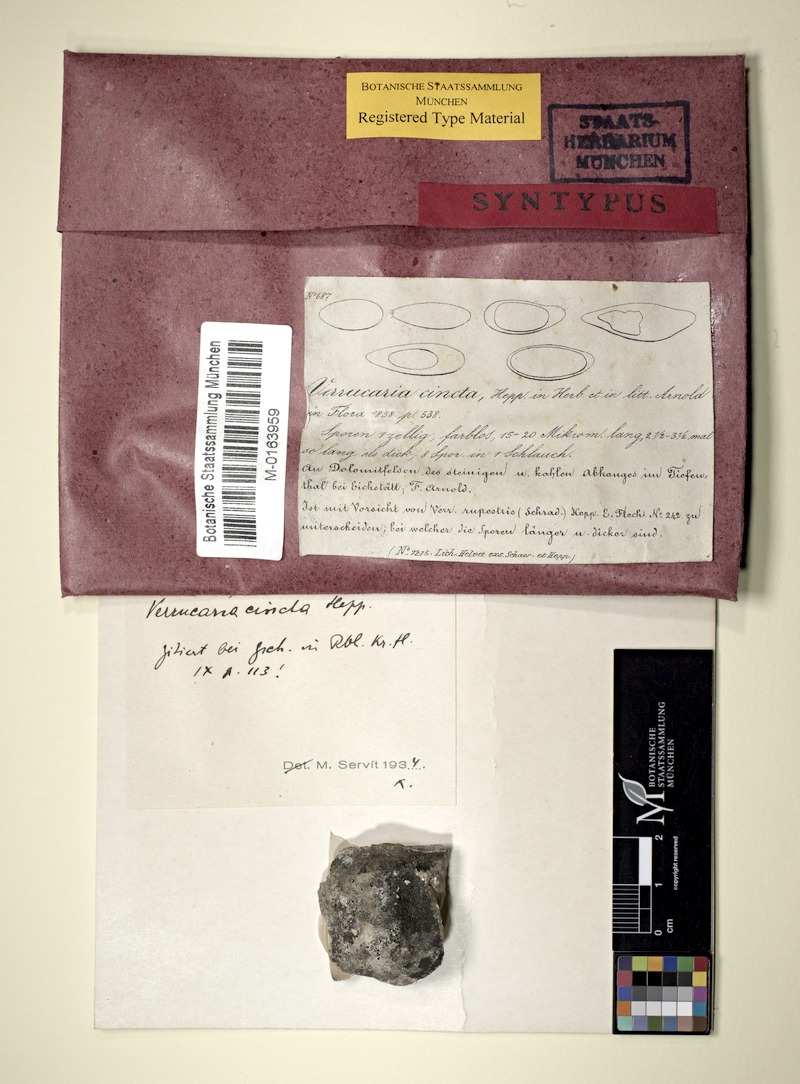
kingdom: Fungi
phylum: Ascomycota
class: Eurotiomycetes
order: Verrucariales
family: Verrucariaceae
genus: Verrucaria
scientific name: Verrucaria cincta
